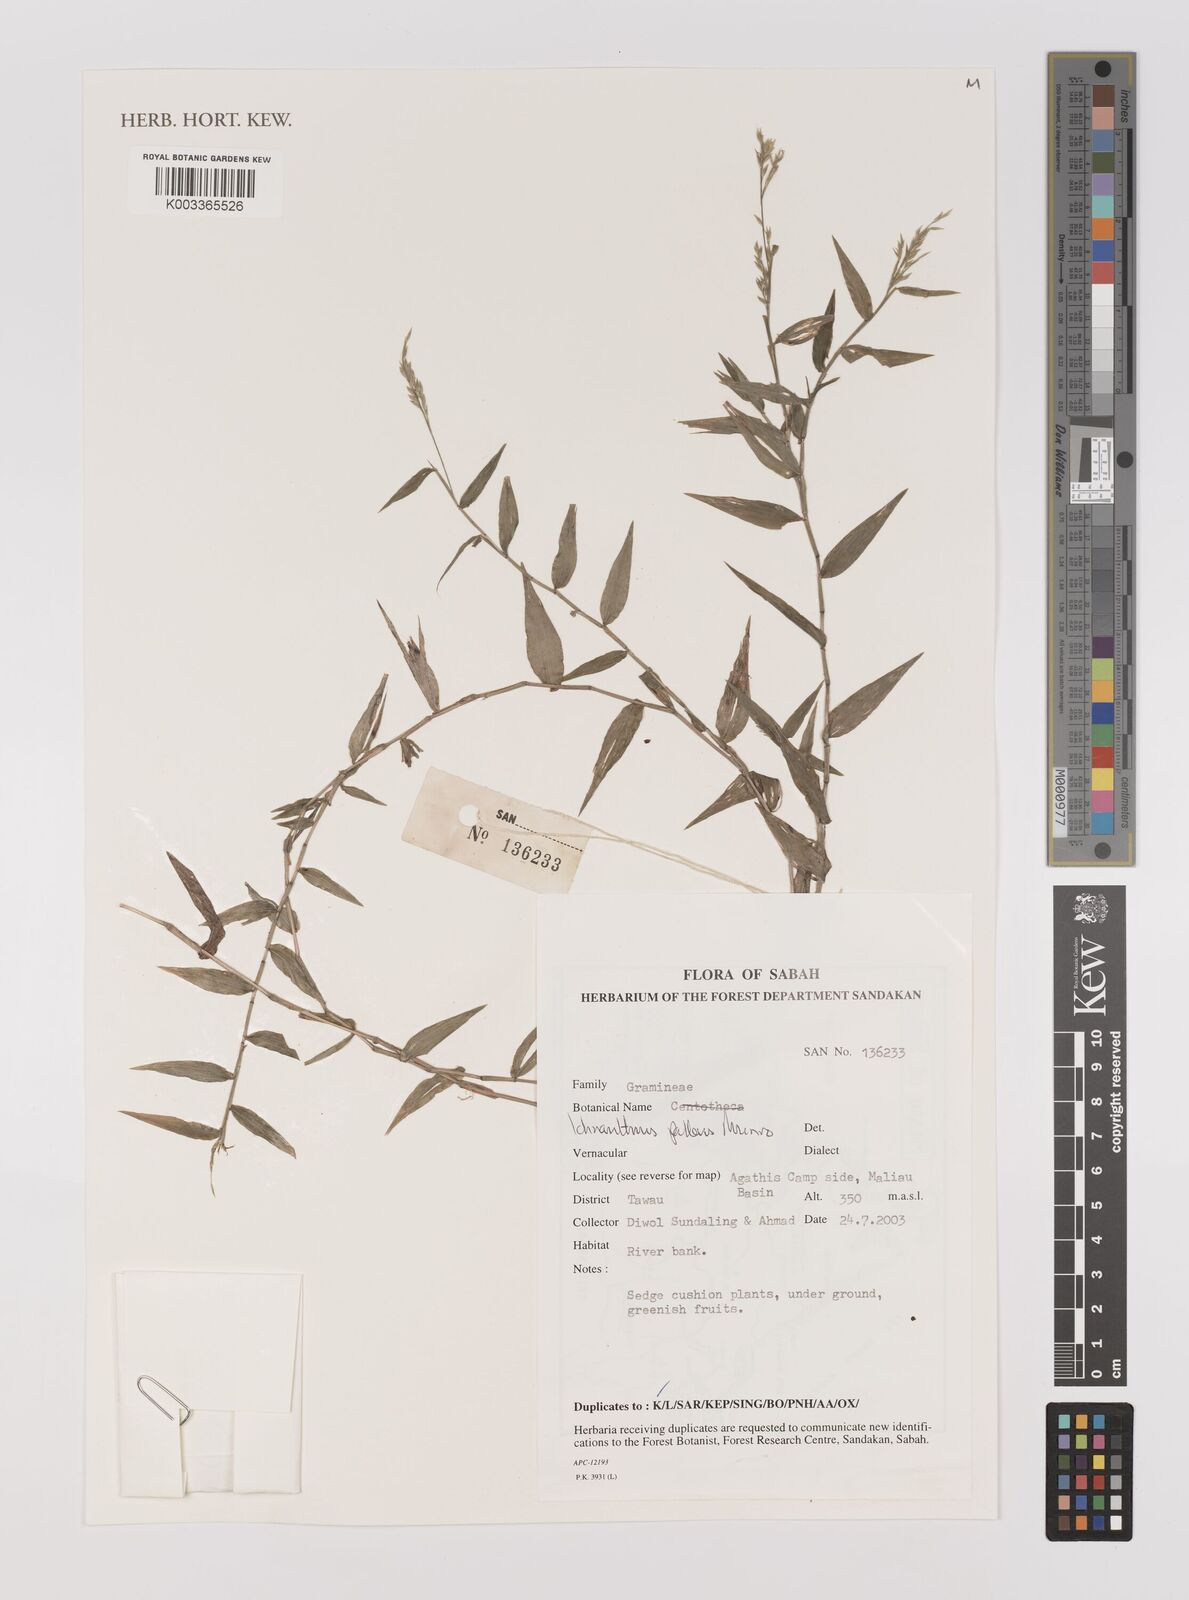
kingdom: Plantae
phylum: Tracheophyta
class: Liliopsida
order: Poales
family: Poaceae
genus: Ichnanthus
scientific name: Ichnanthus pallens
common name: Water grass
